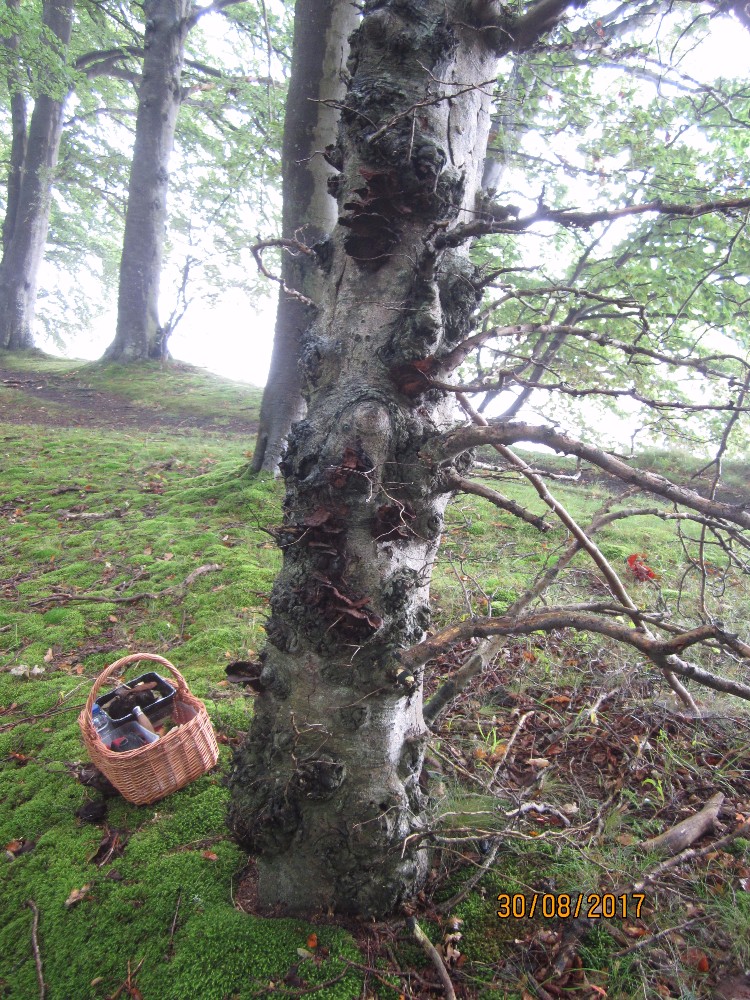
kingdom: Fungi
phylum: Basidiomycota
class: Agaricomycetes
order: Hymenochaetales
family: Hymenochaetaceae
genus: Inonotus
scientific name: Inonotus cuticularis
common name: kroghåret spejlporesvamp
